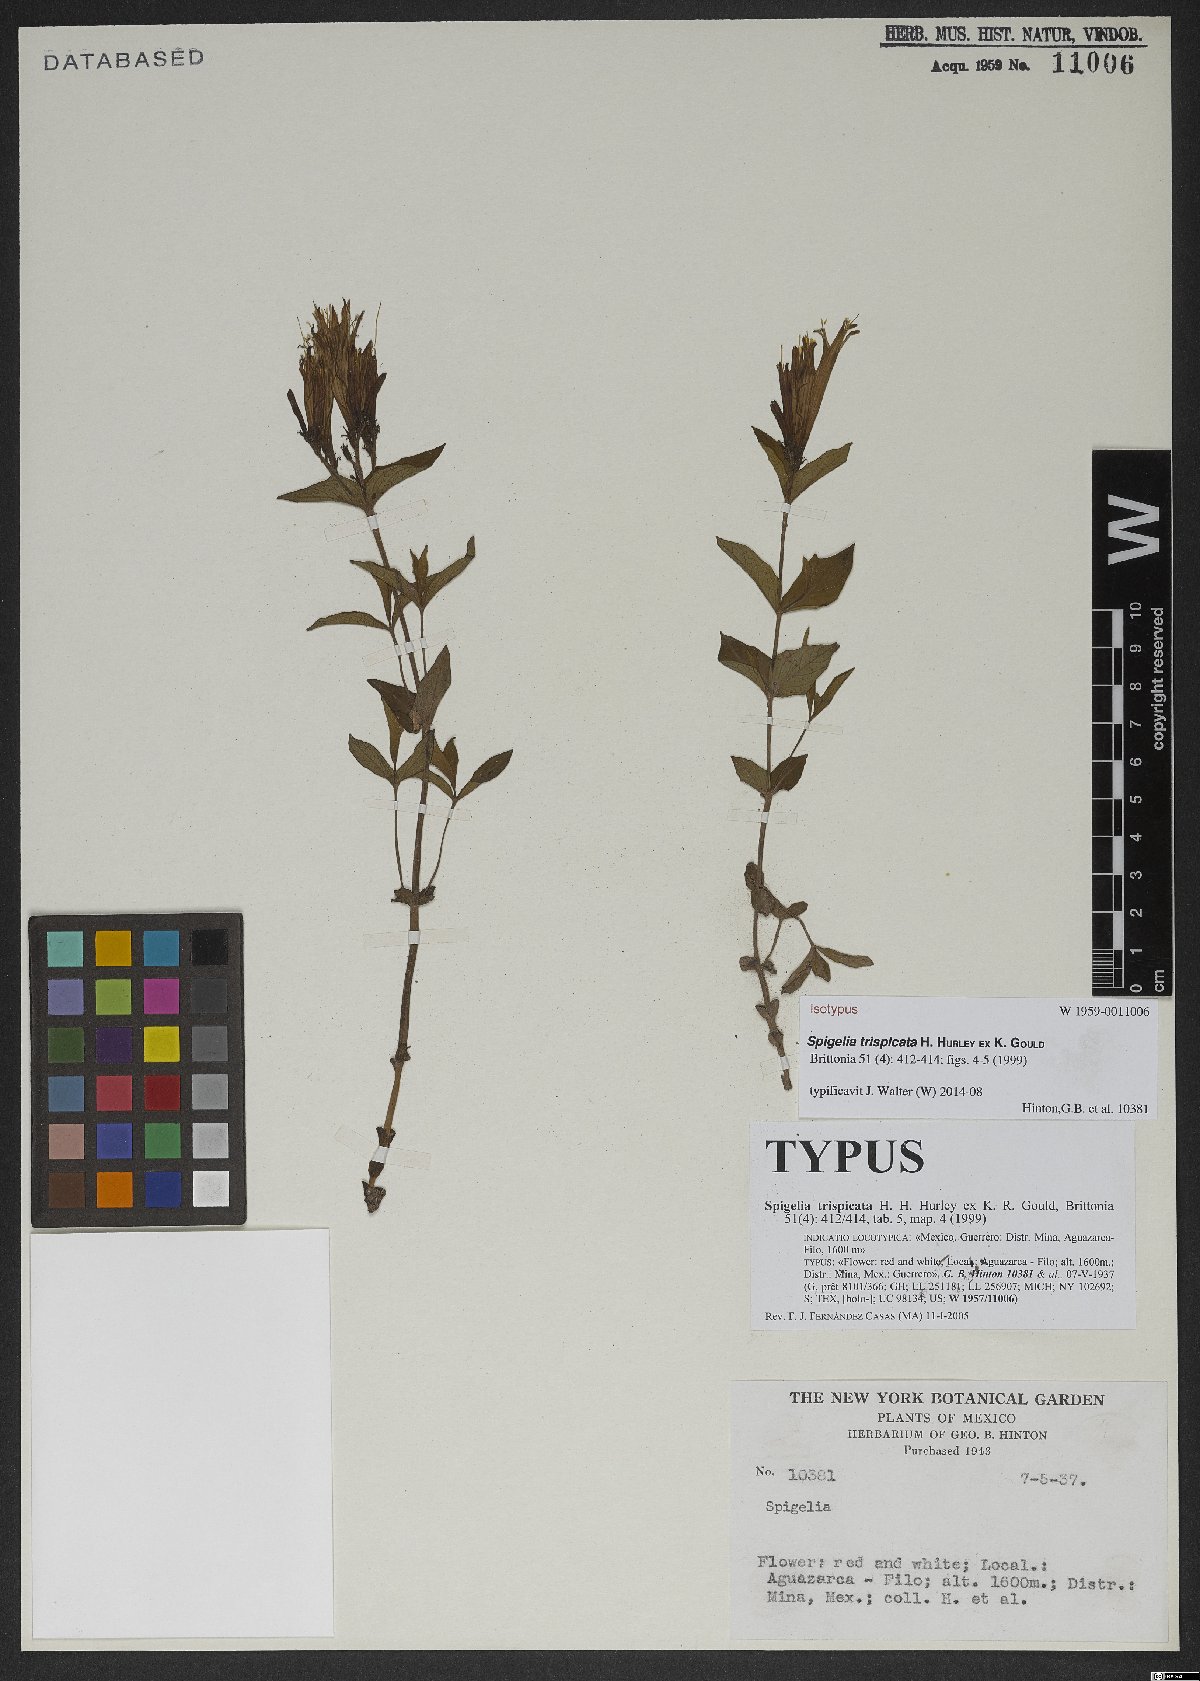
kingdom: Plantae
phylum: Tracheophyta
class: Magnoliopsida
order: Gentianales
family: Loganiaceae
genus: Spigelia
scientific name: Spigelia trispicata
